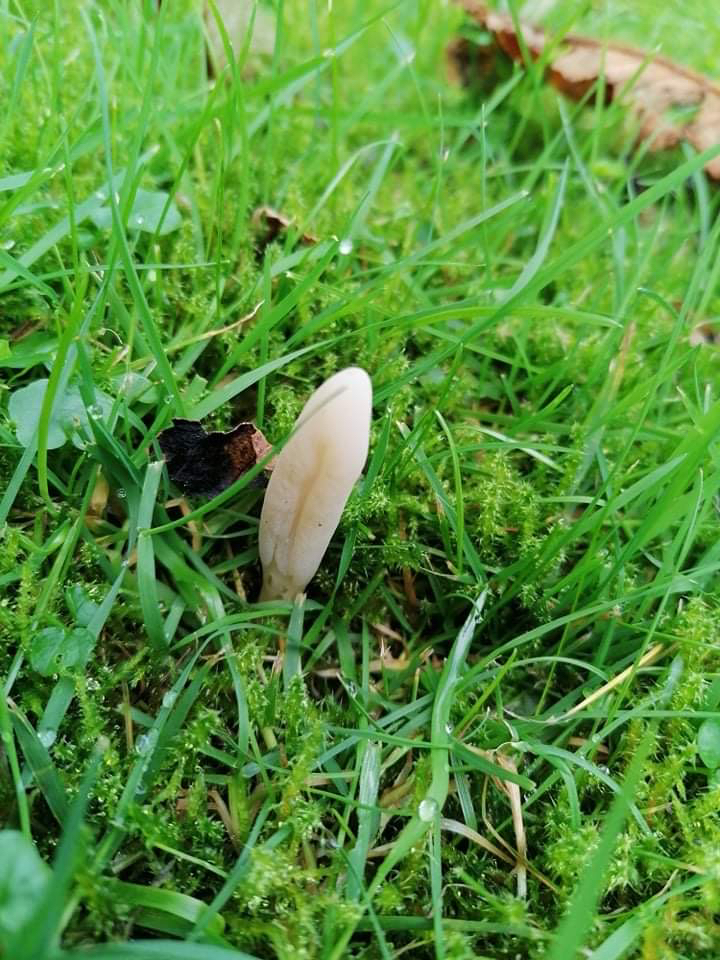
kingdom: Fungi
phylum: Basidiomycota
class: Agaricomycetes
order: Agaricales
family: Clavariaceae
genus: Clavaria
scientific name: Clavaria tenuipes
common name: isabellafarvet køllesvamp
